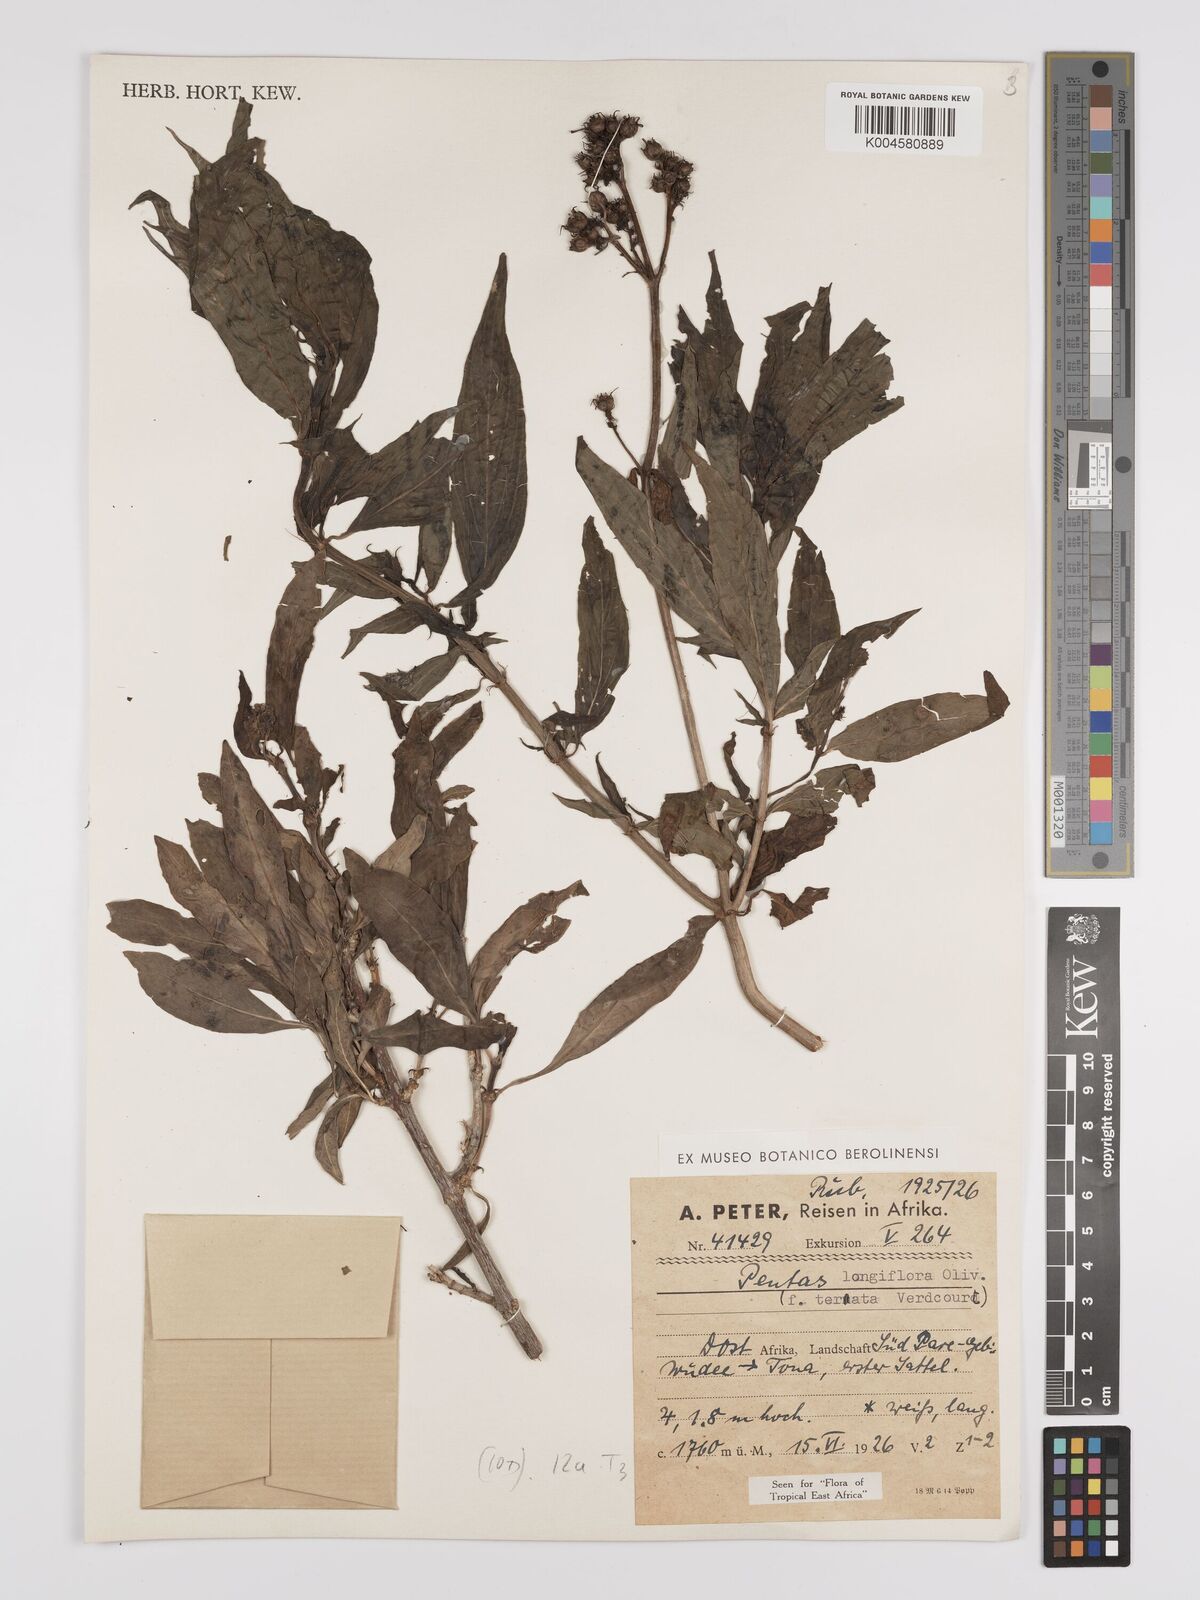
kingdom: Plantae
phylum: Tracheophyta
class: Magnoliopsida
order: Gentianales
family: Rubiaceae
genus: Dolichopentas
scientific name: Dolichopentas longiflora
